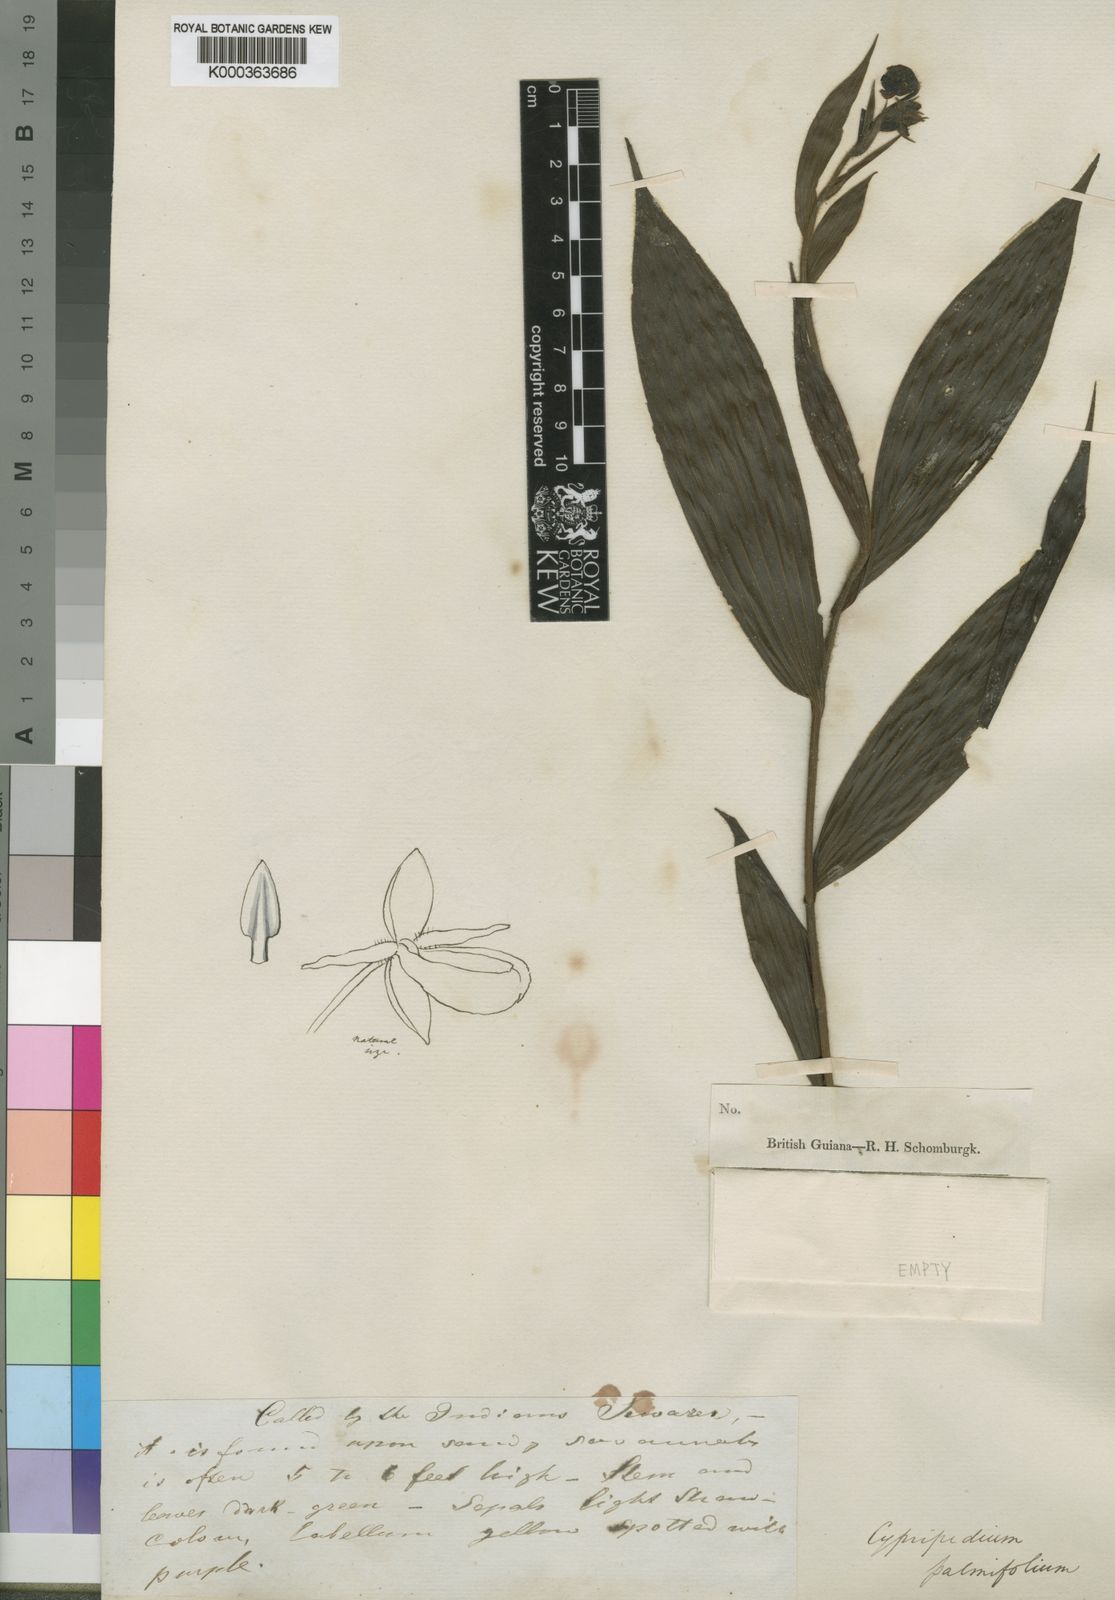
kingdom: Plantae
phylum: Tracheophyta
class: Liliopsida
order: Asparagales
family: Orchidaceae
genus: Selenipedium
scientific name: Selenipedium palmifolium
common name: Palm-leaf selenipedium
